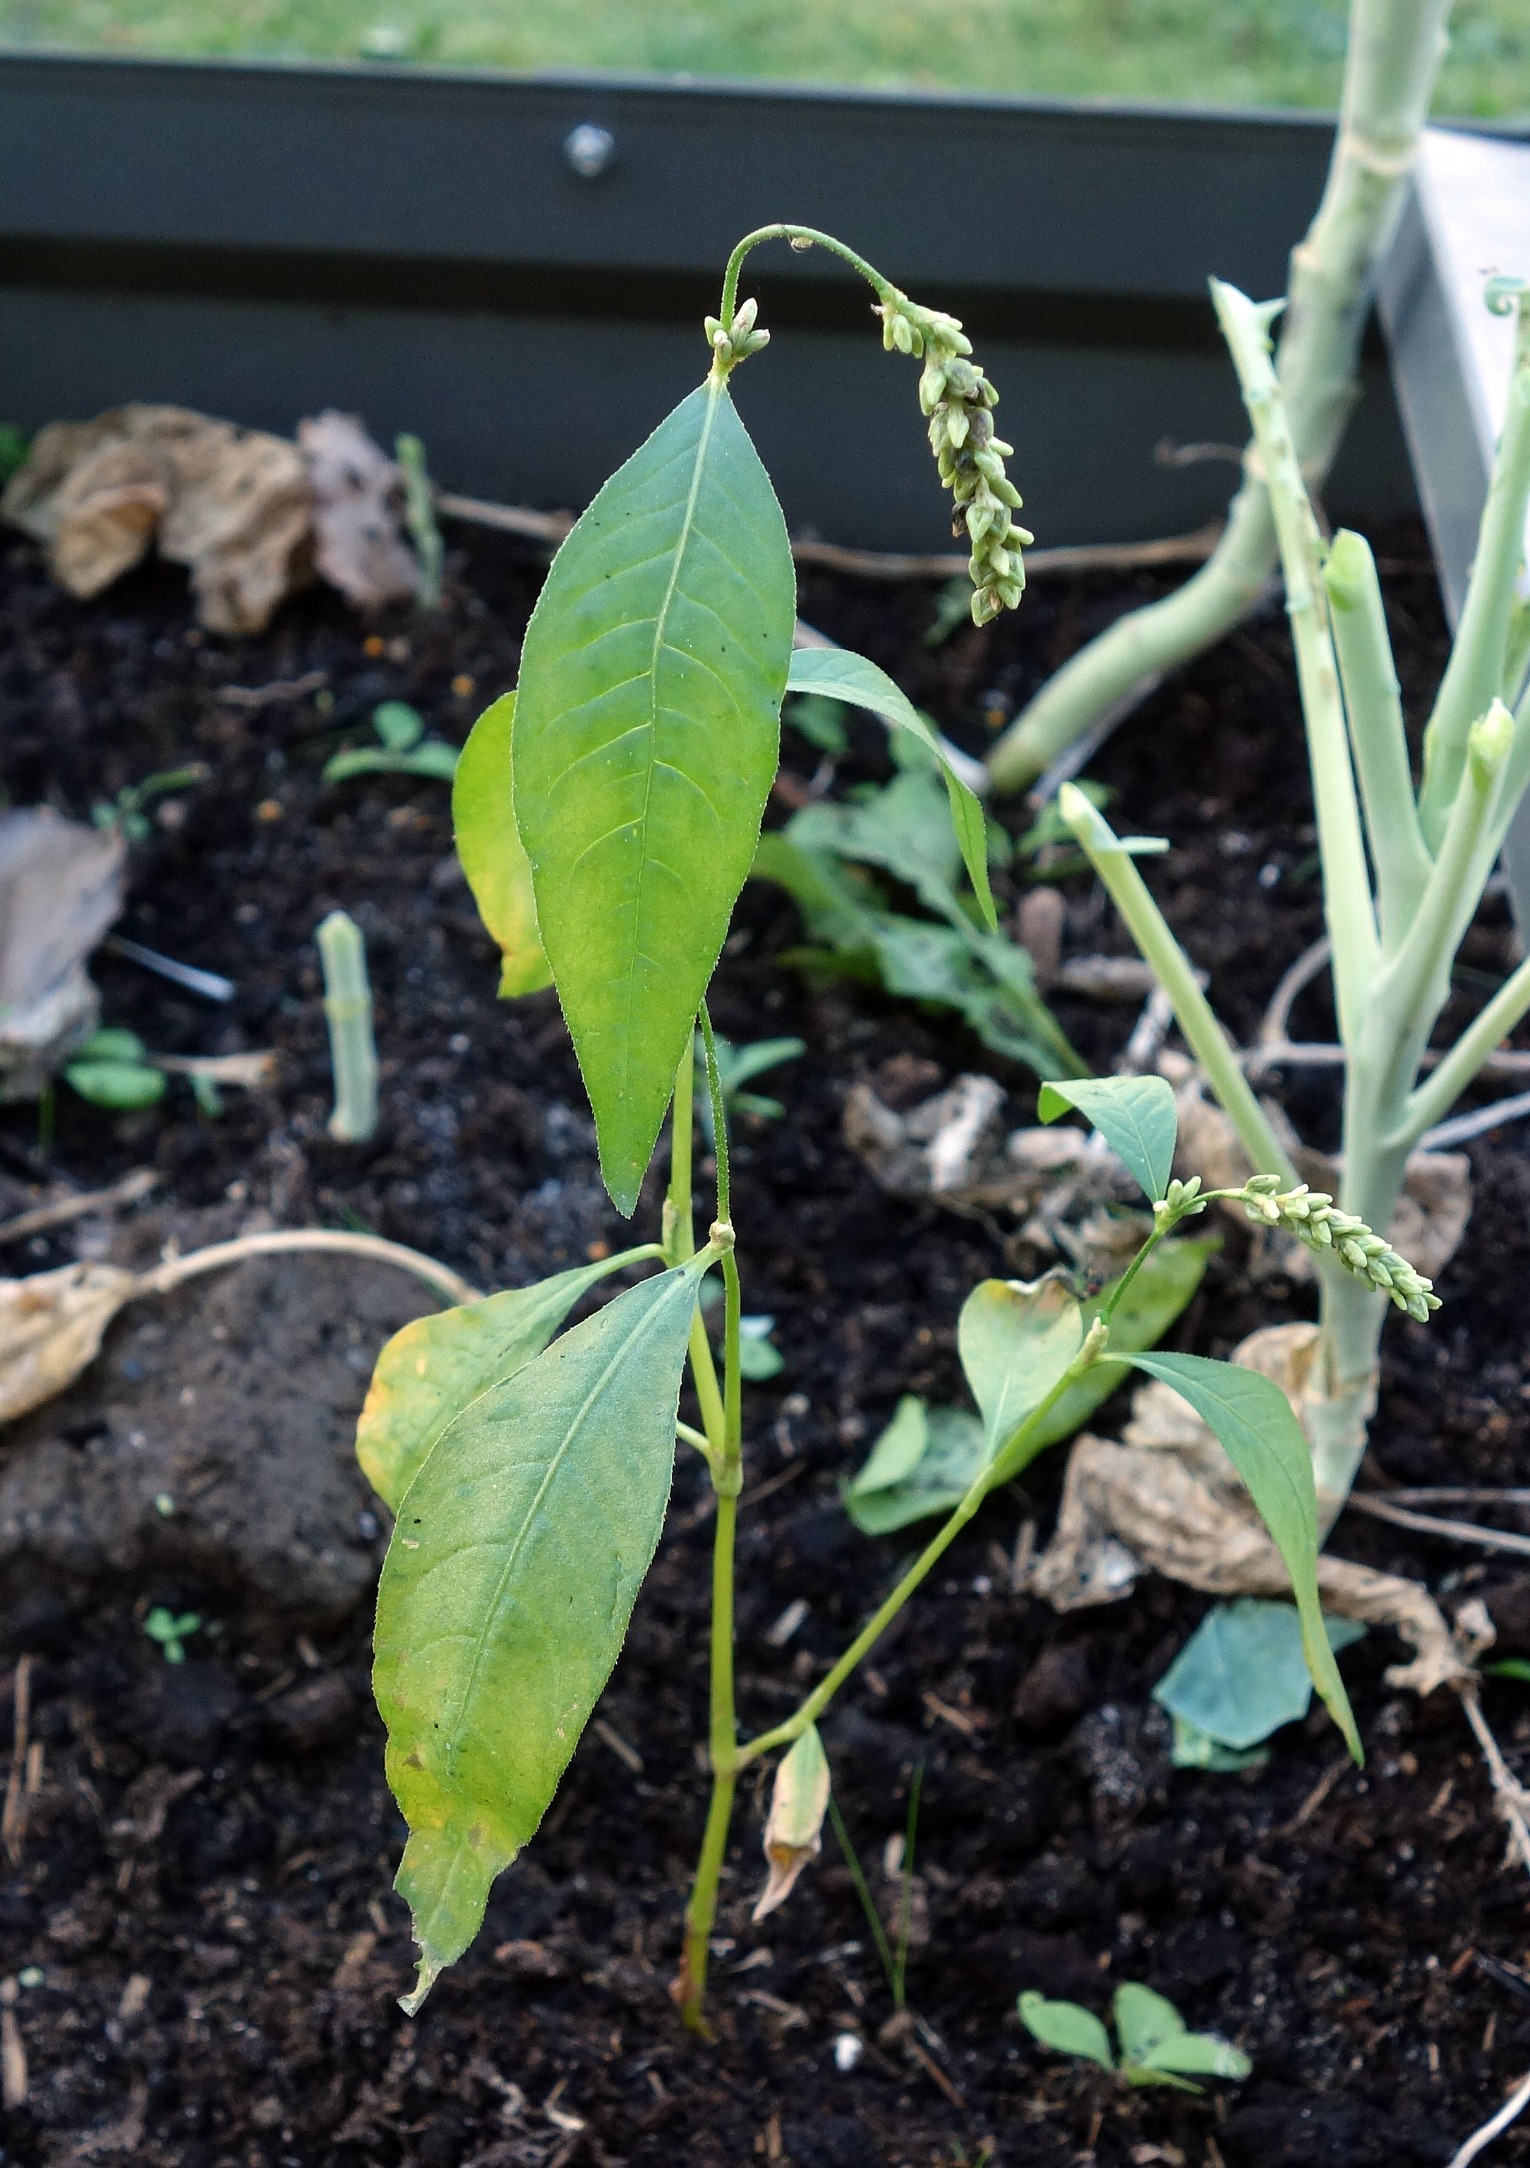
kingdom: Plantae
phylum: Tracheophyta
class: Magnoliopsida
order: Caryophyllales
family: Polygonaceae
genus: Persicaria
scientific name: Persicaria lapathifolia
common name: Knudet pileurt
